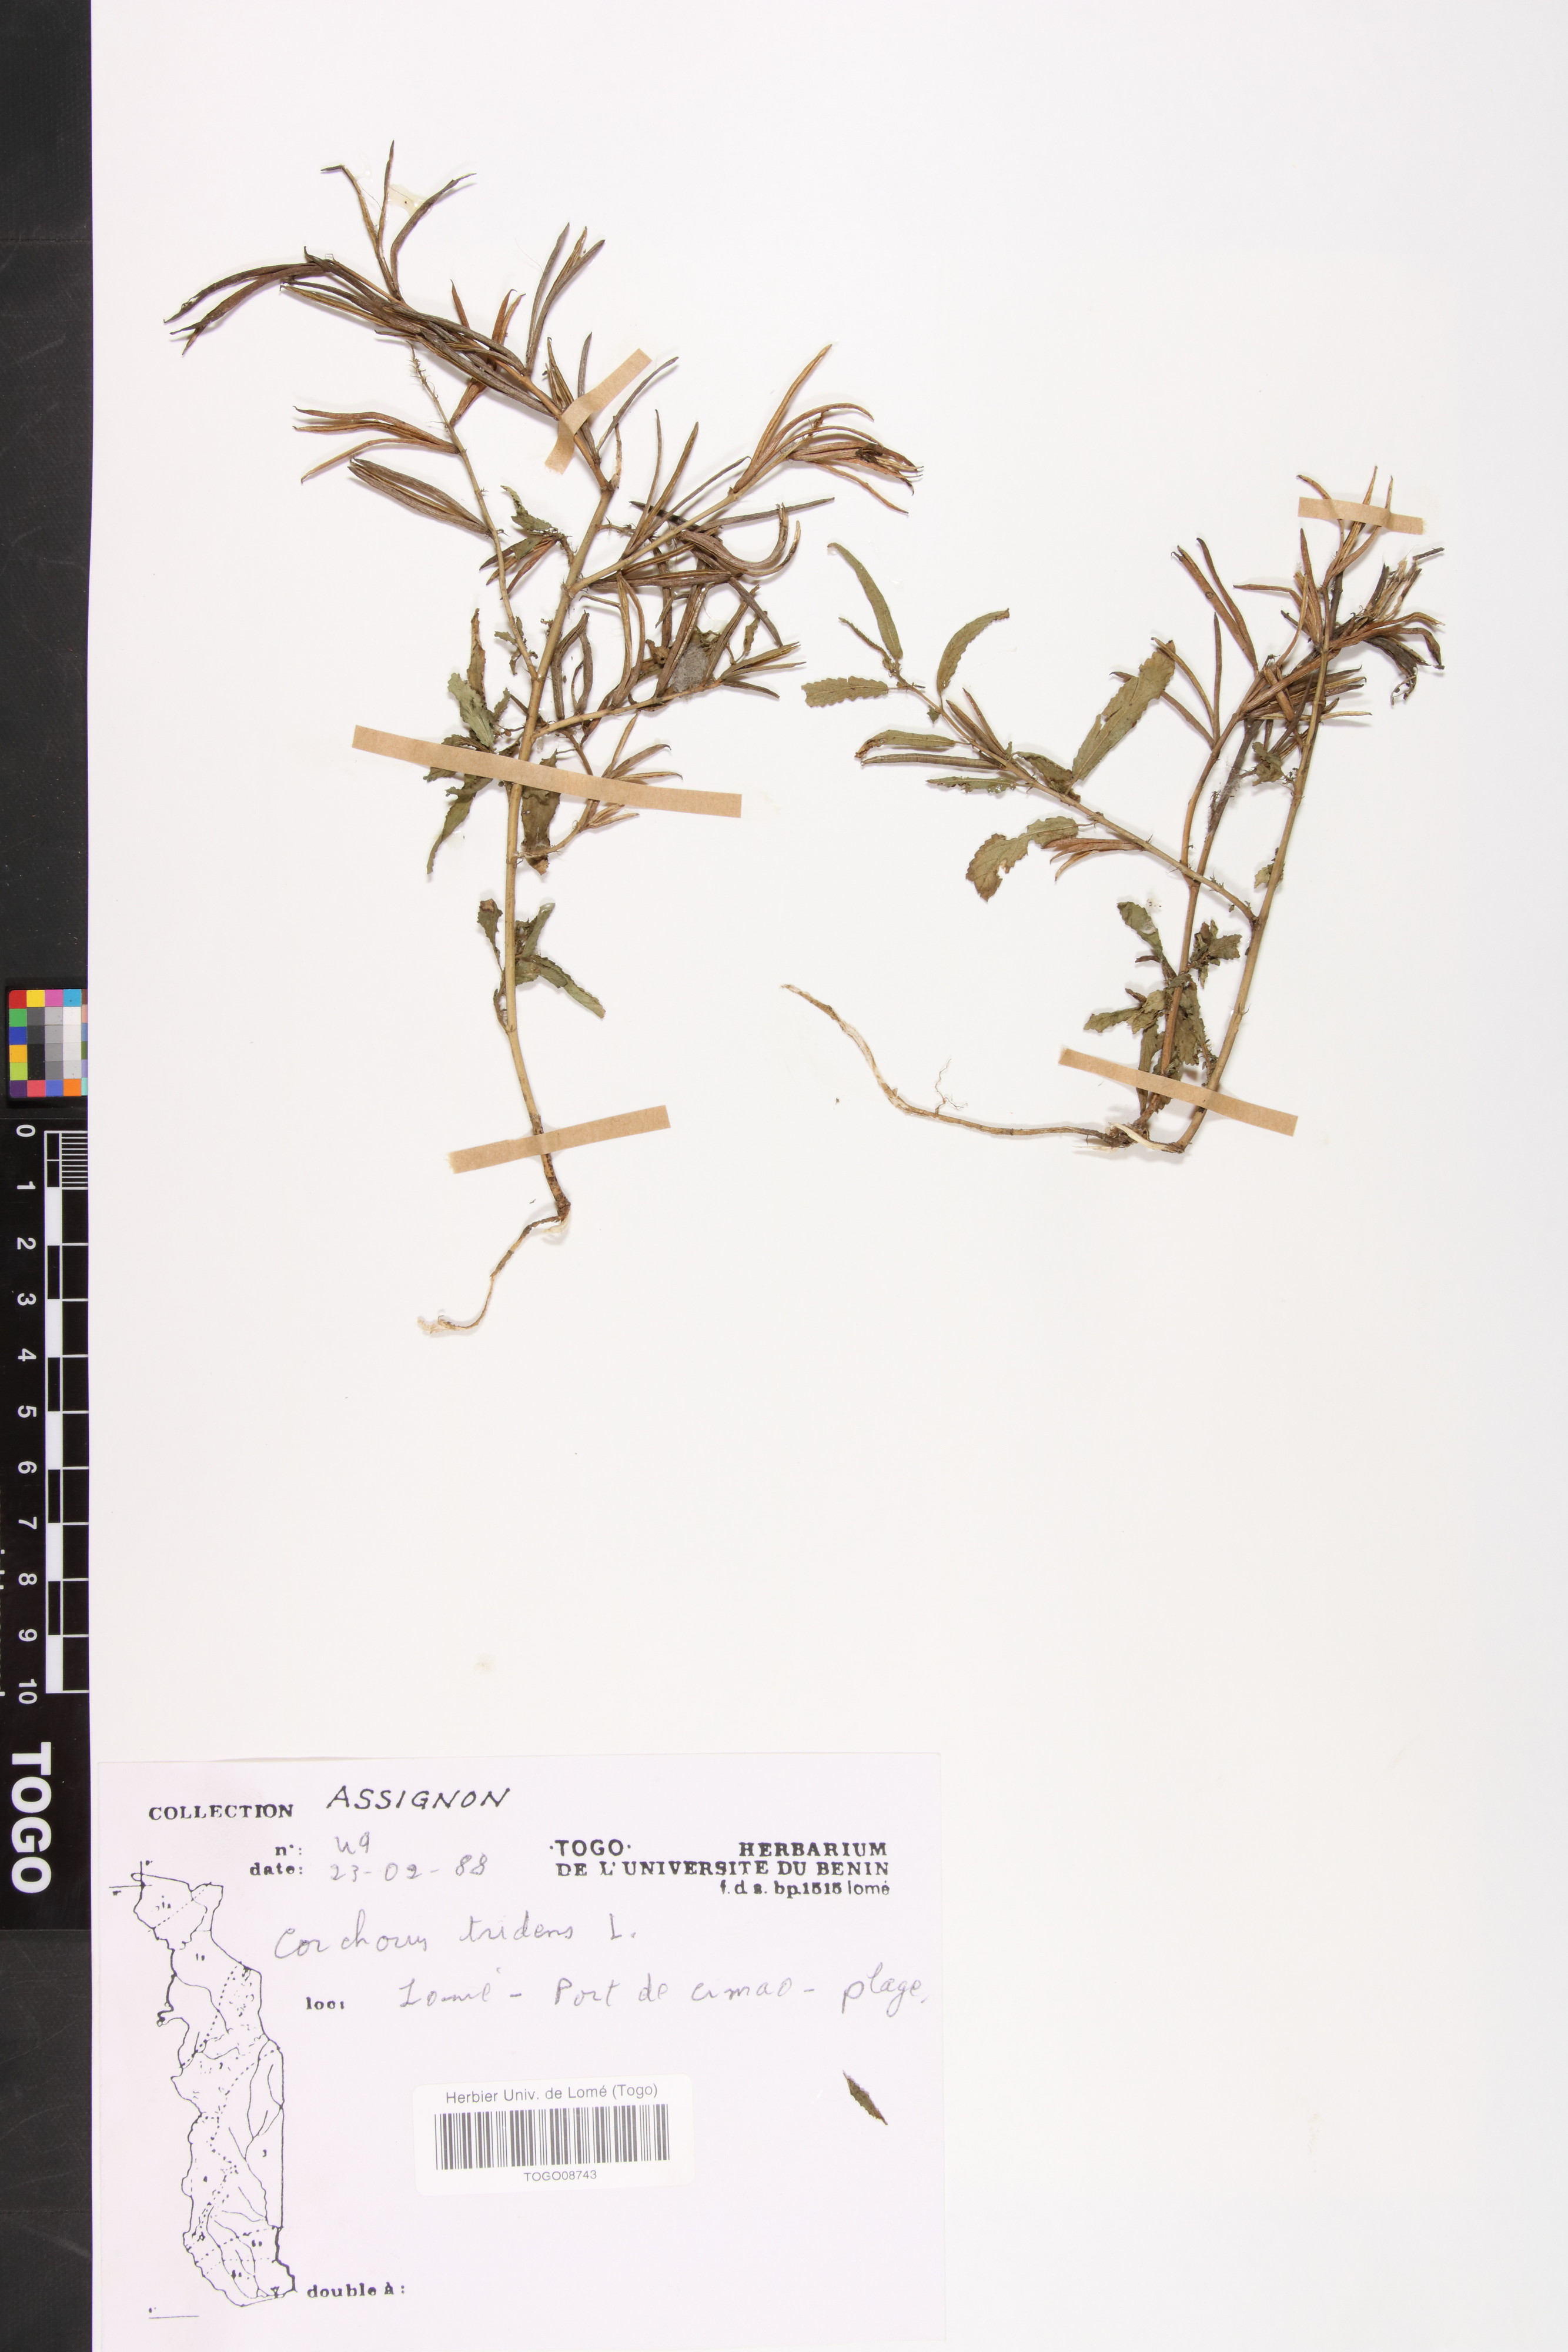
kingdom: Plantae
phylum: Tracheophyta
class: Magnoliopsida
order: Malvales
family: Malvaceae
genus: Corchorus
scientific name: Corchorus tridens
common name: Wild jute
